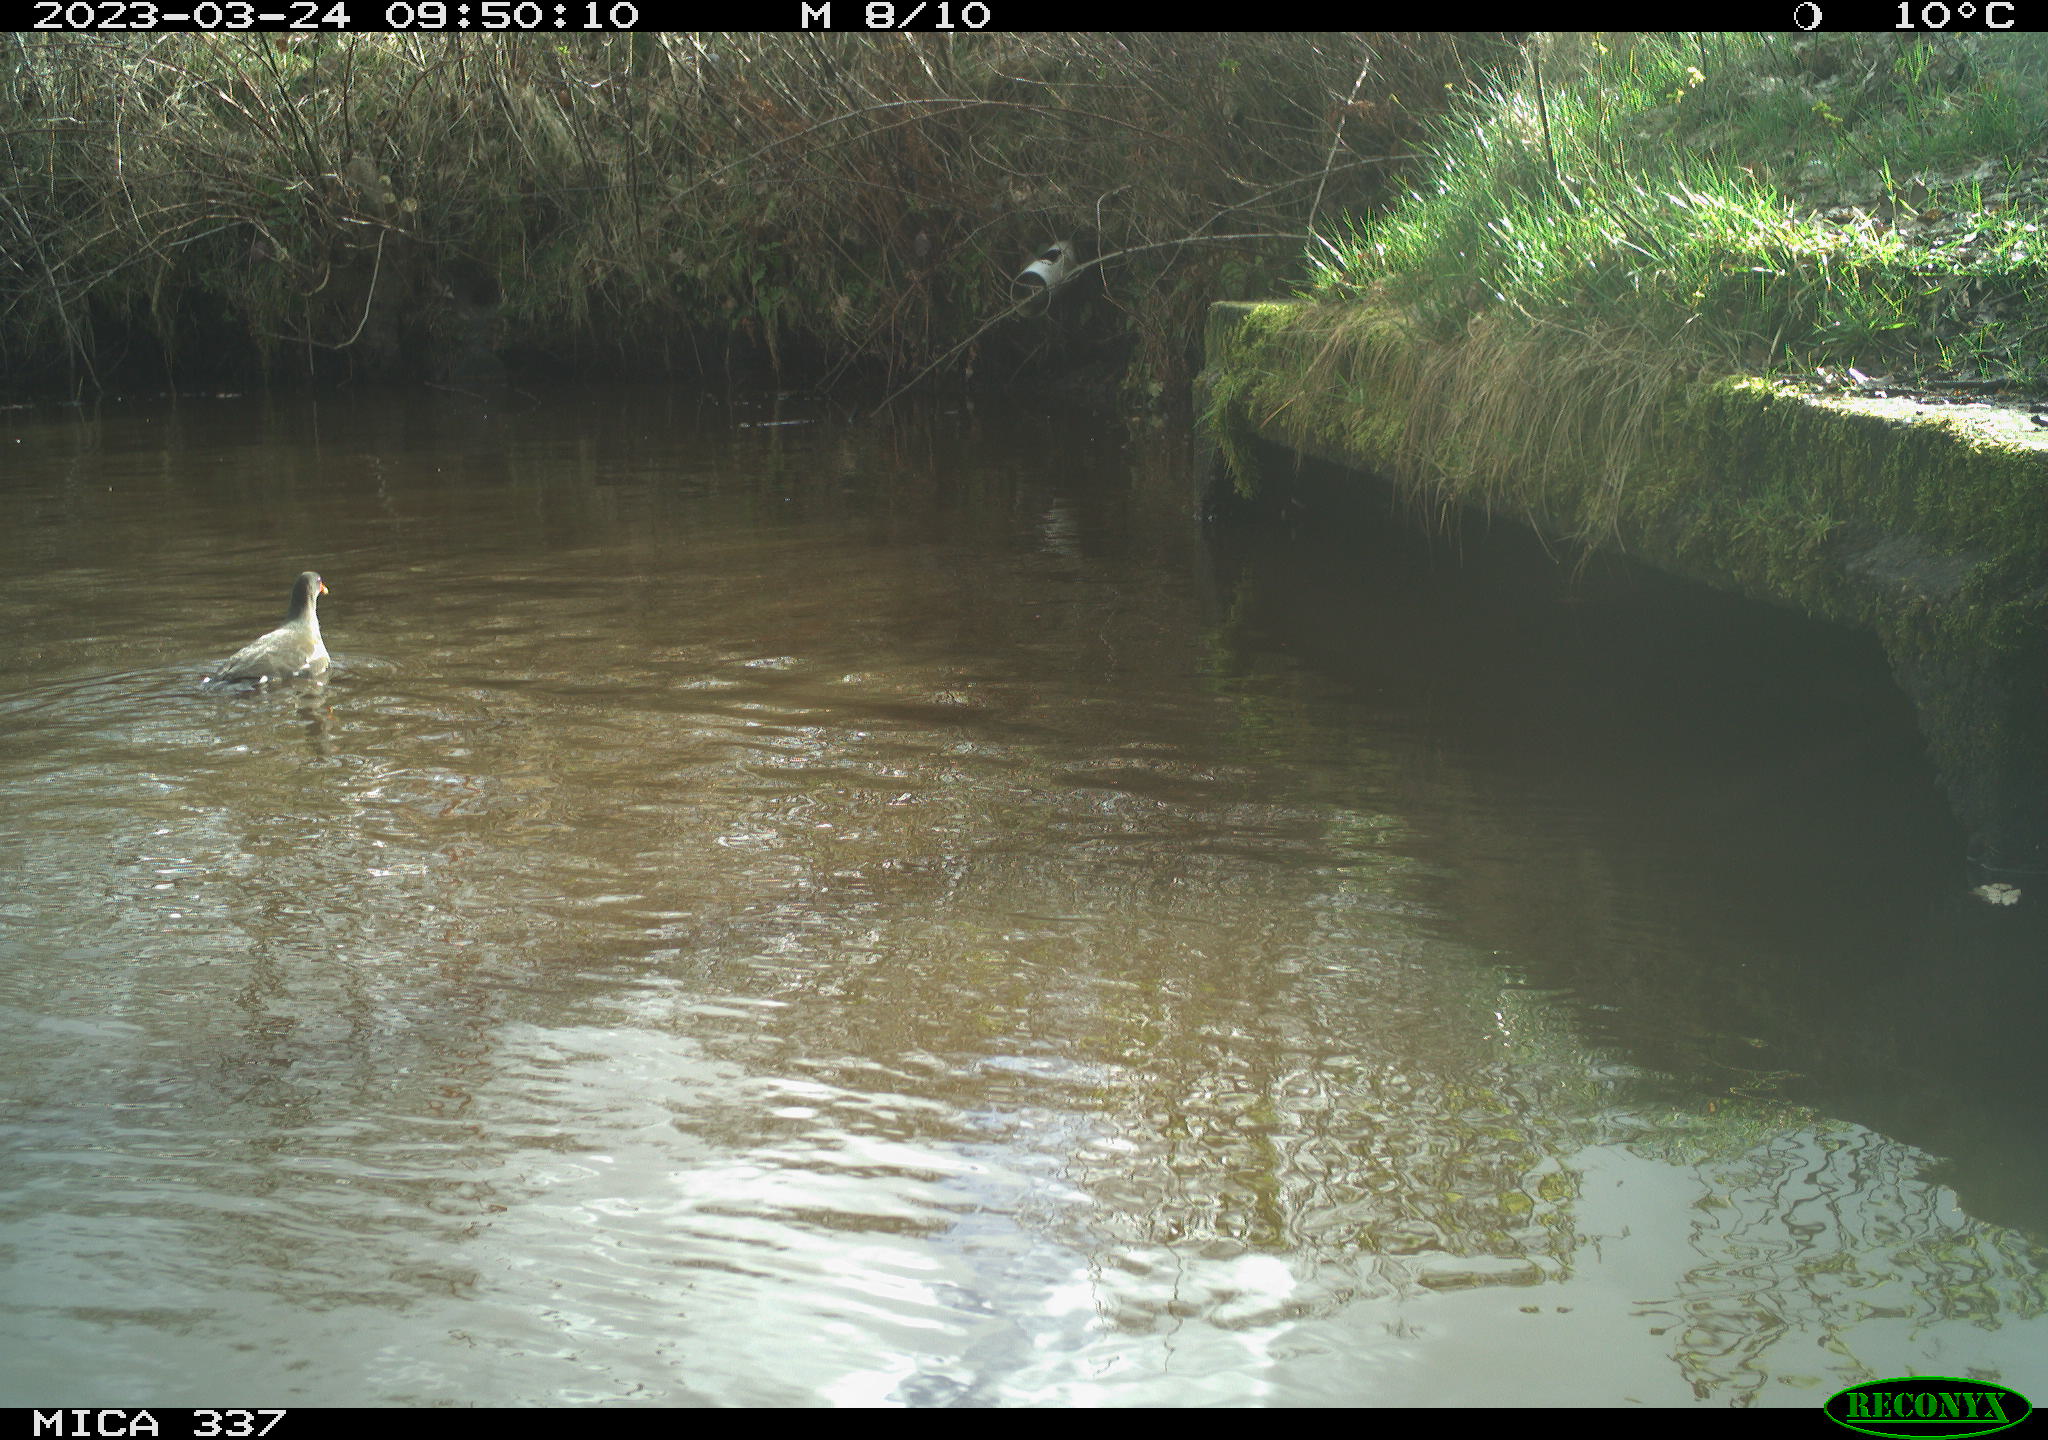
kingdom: Animalia
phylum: Chordata
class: Aves
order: Gruiformes
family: Rallidae
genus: Gallinula
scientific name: Gallinula chloropus
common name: Common moorhen
